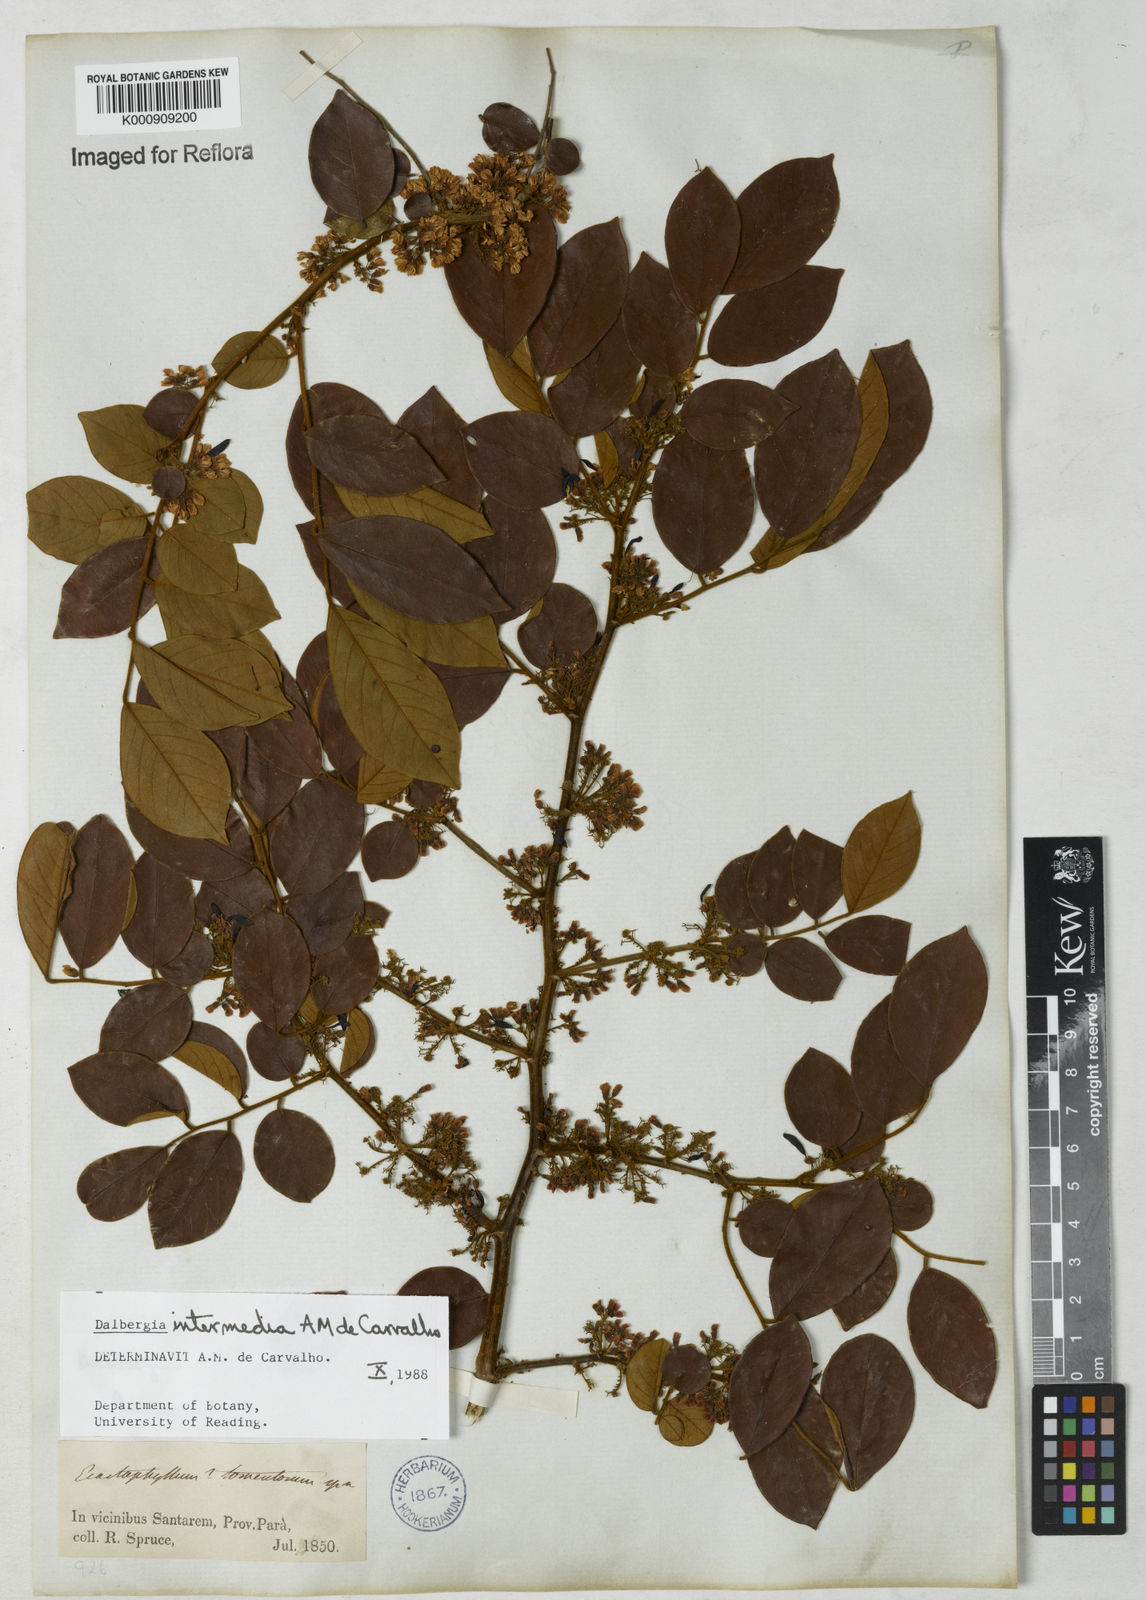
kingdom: Plantae
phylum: Tracheophyta
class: Magnoliopsida
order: Fabales
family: Fabaceae
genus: Dalbergia
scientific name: Dalbergia intermedia
